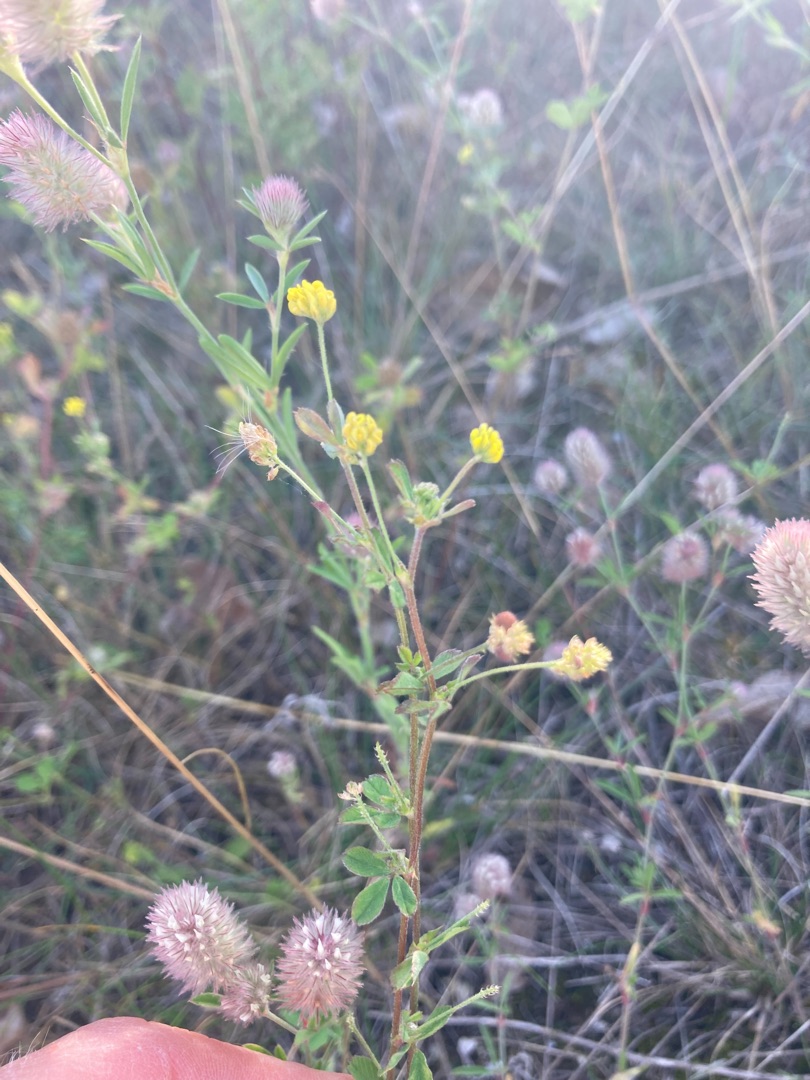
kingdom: Plantae
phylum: Tracheophyta
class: Magnoliopsida
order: Fabales
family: Fabaceae
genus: Medicago
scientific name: Medicago lupulina
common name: Humle-sneglebælg
